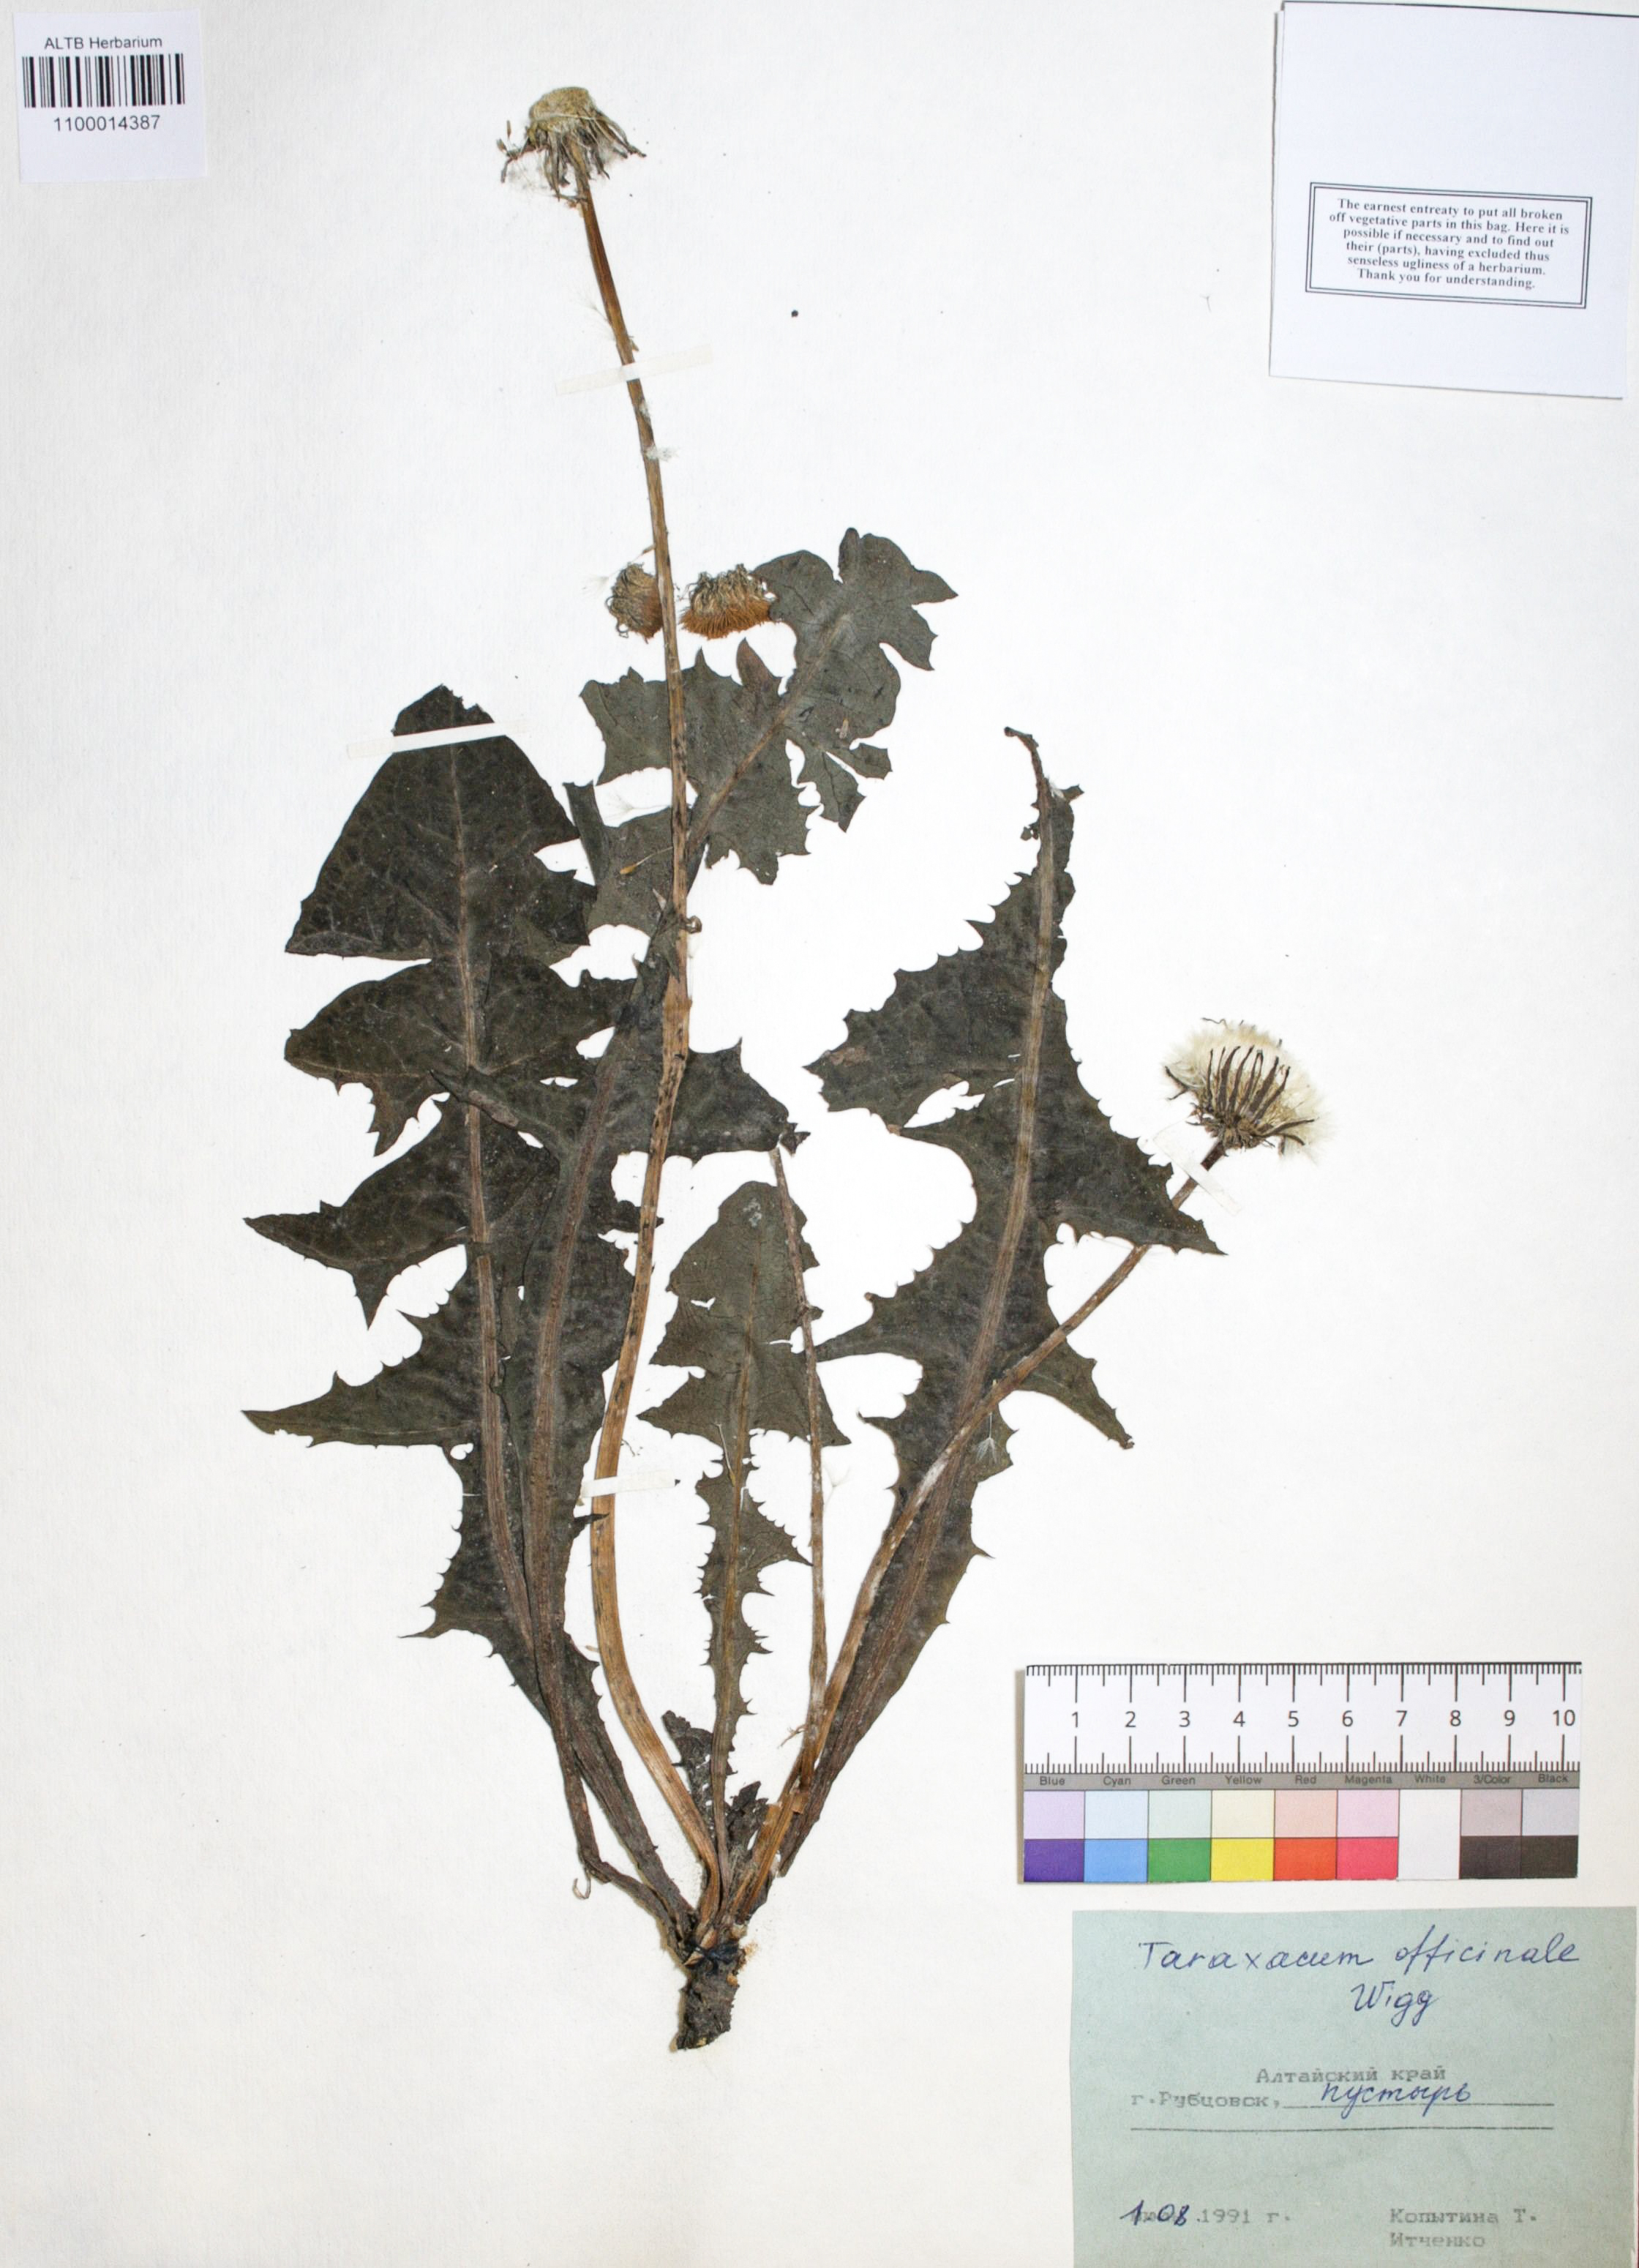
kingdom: Plantae
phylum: Tracheophyta
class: Magnoliopsida
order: Asterales
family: Asteraceae
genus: Taraxacum
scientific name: Taraxacum officinale
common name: Common dandelion
